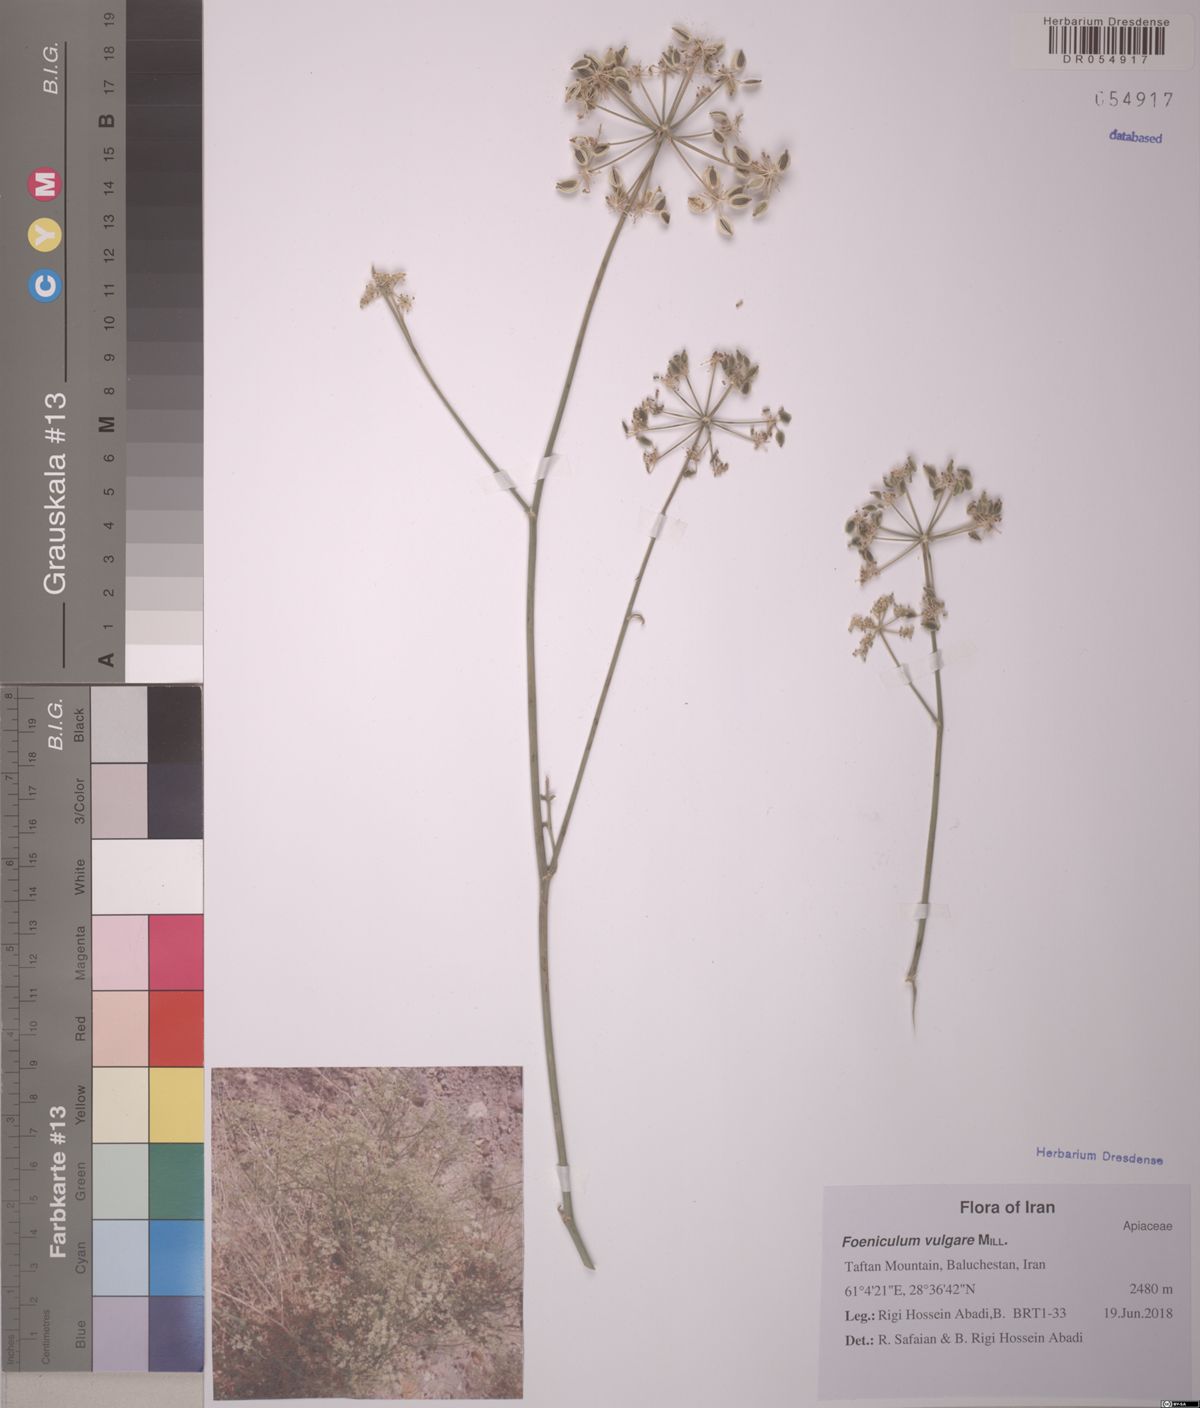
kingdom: Plantae
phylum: Tracheophyta
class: Magnoliopsida
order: Apiales
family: Apiaceae
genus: Ducrosia
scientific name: Ducrosia anethifolia
